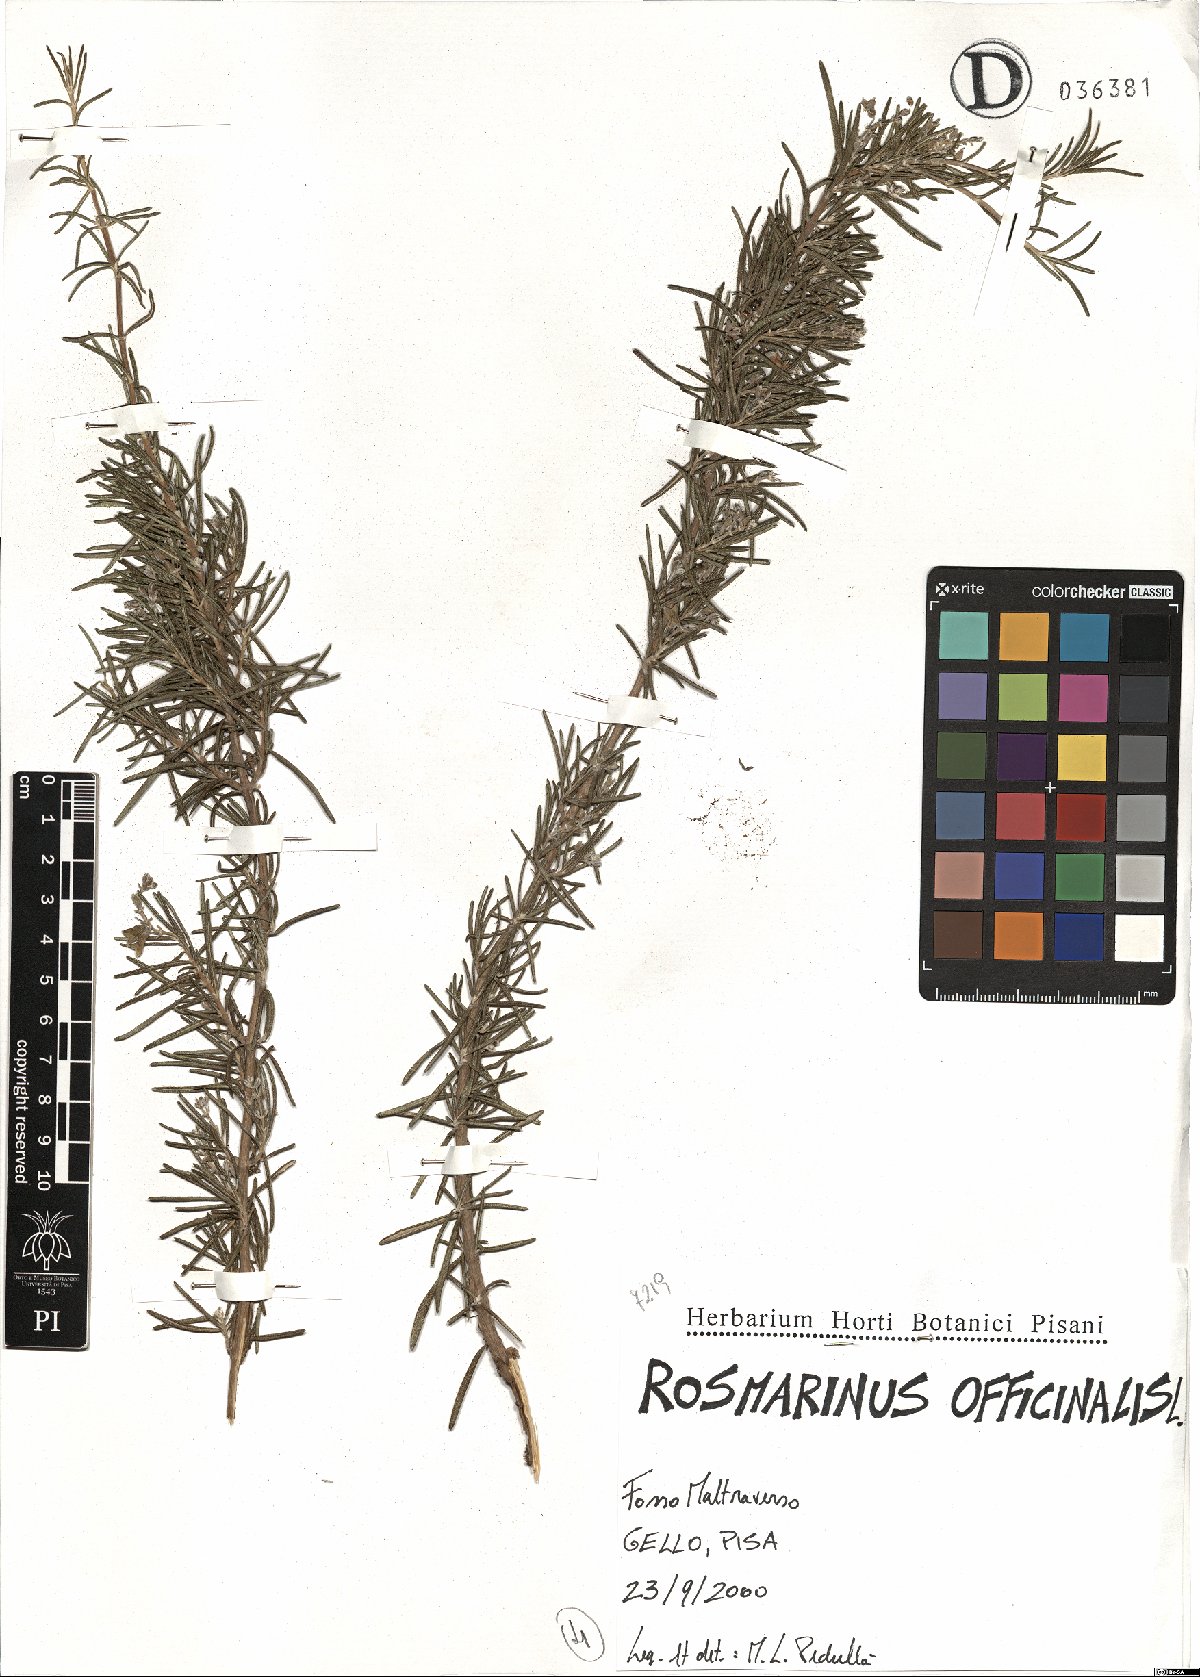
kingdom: Plantae
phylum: Tracheophyta
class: Magnoliopsida
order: Lamiales
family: Lamiaceae
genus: Salvia
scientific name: Salvia rosmarinus
